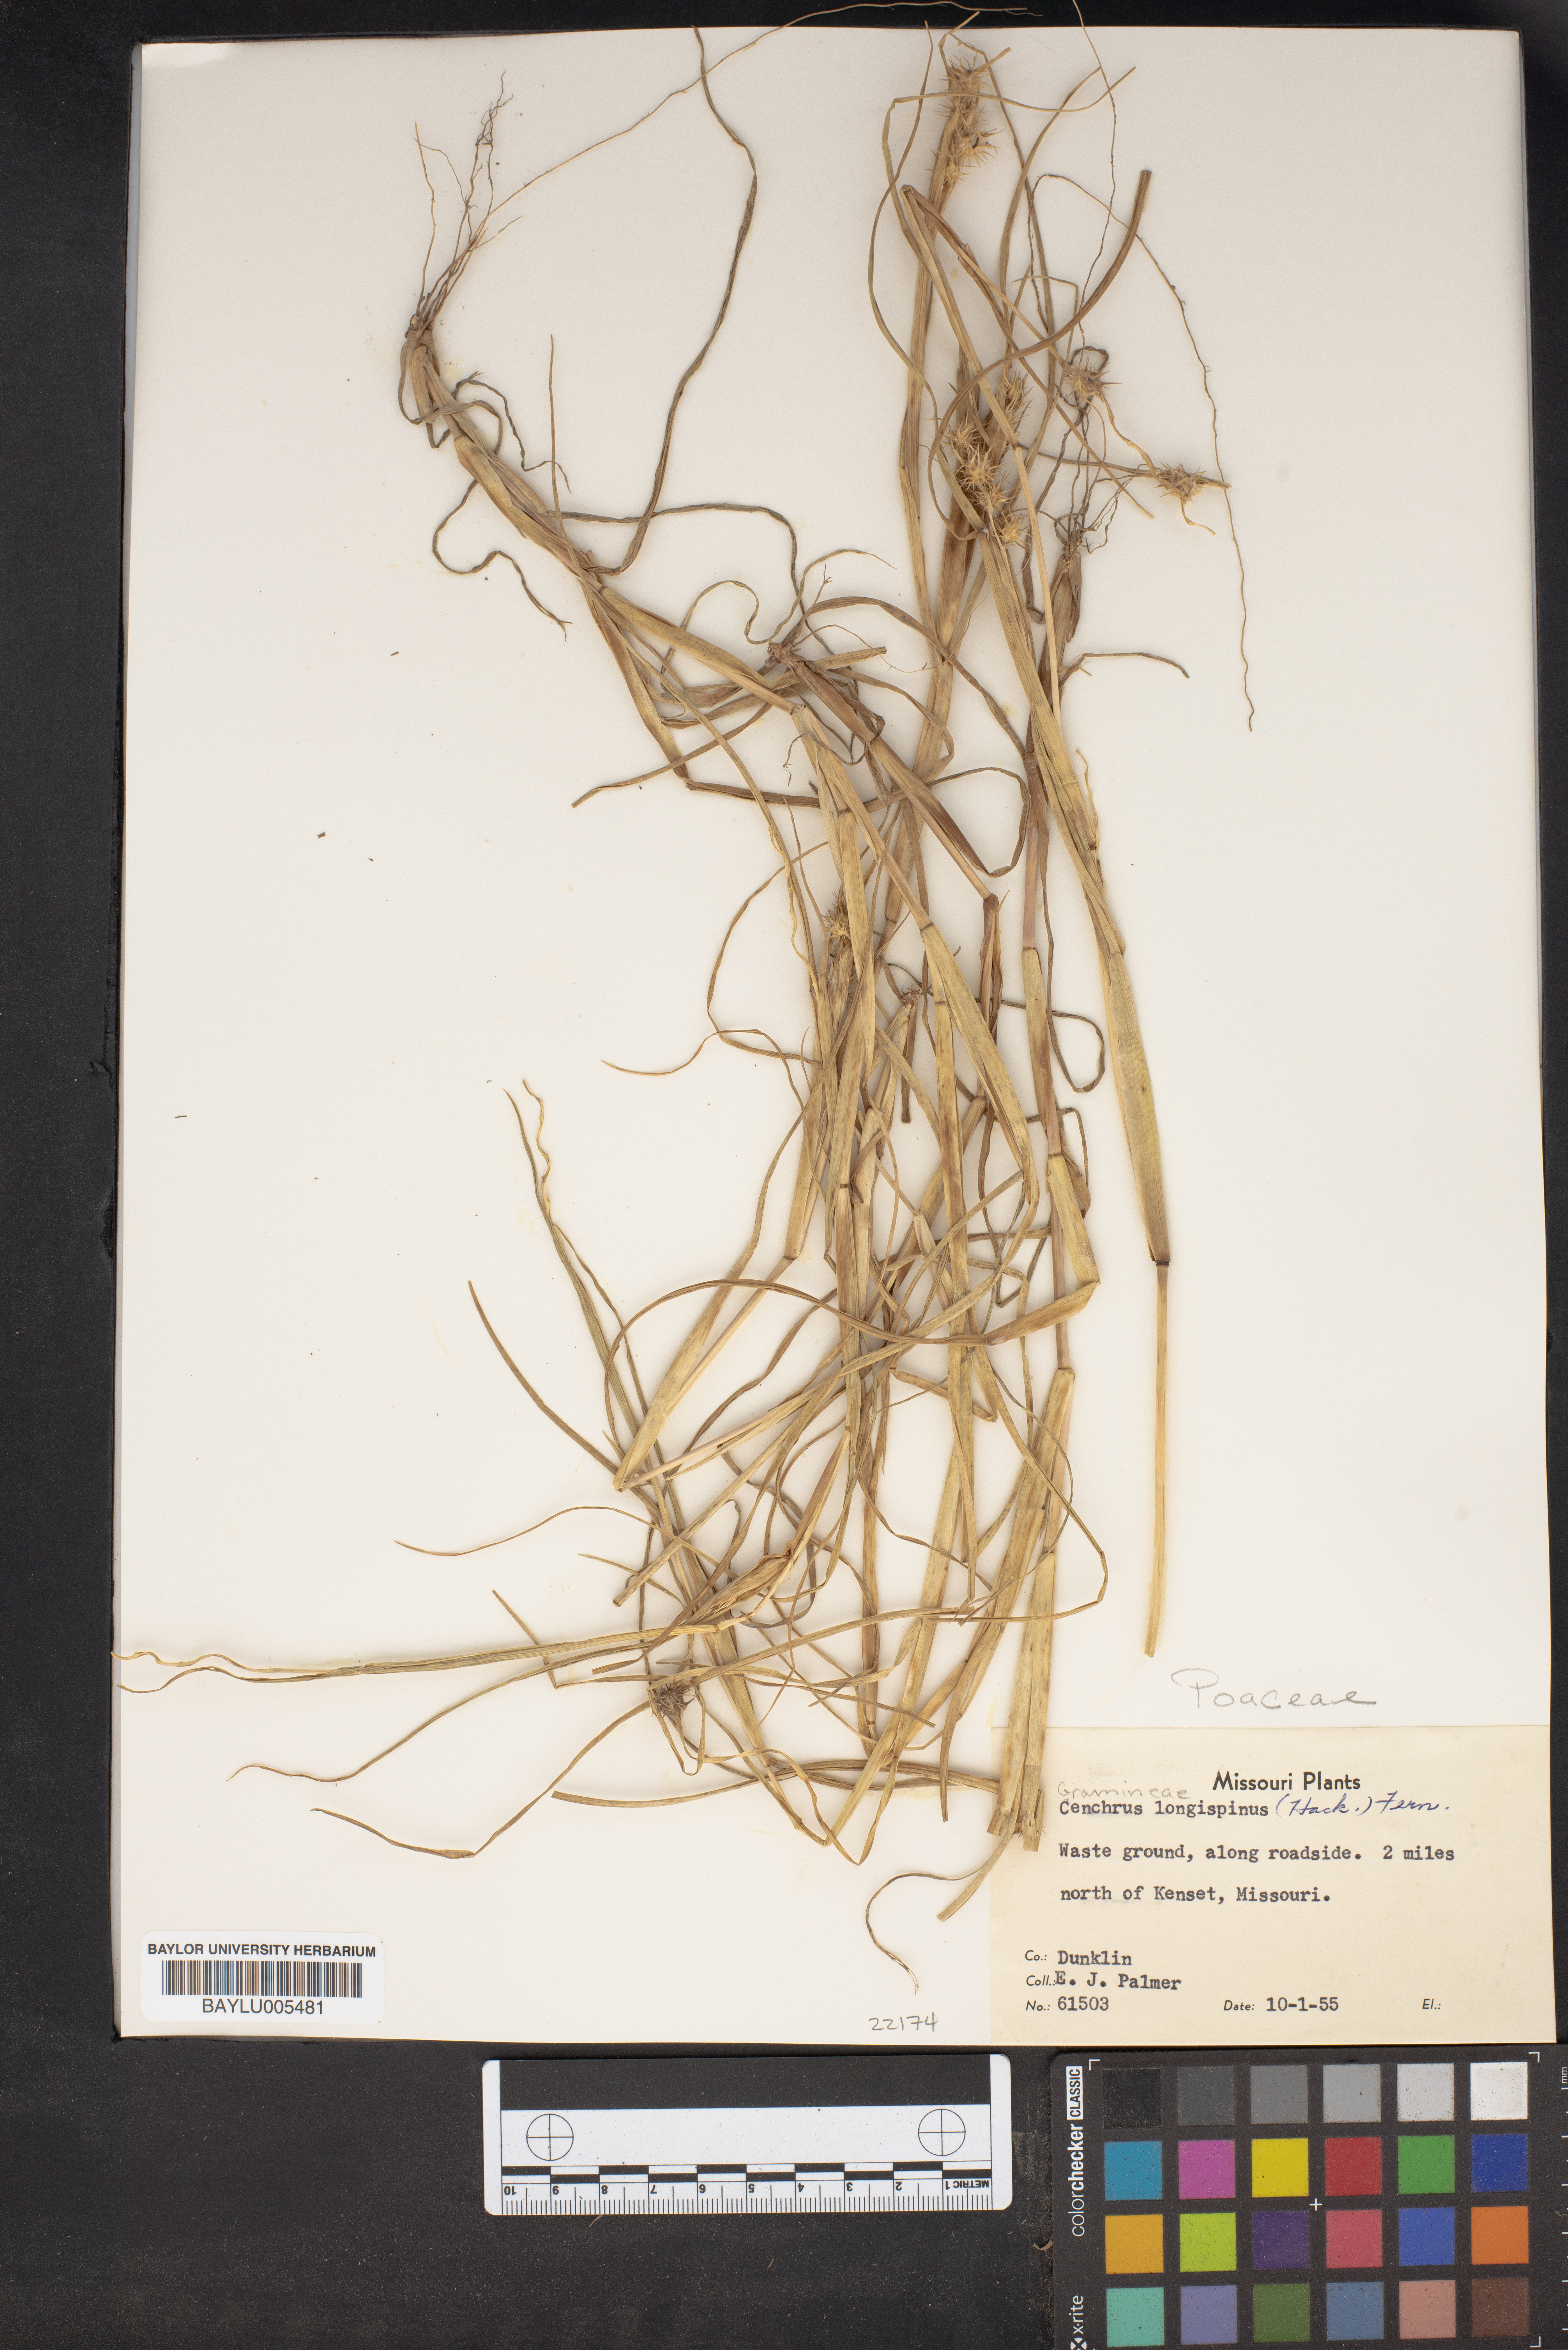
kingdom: Plantae
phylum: Tracheophyta
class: Liliopsida
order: Poales
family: Poaceae
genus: Cenchrus
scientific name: Cenchrus longispinus
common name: Mat sandbur
